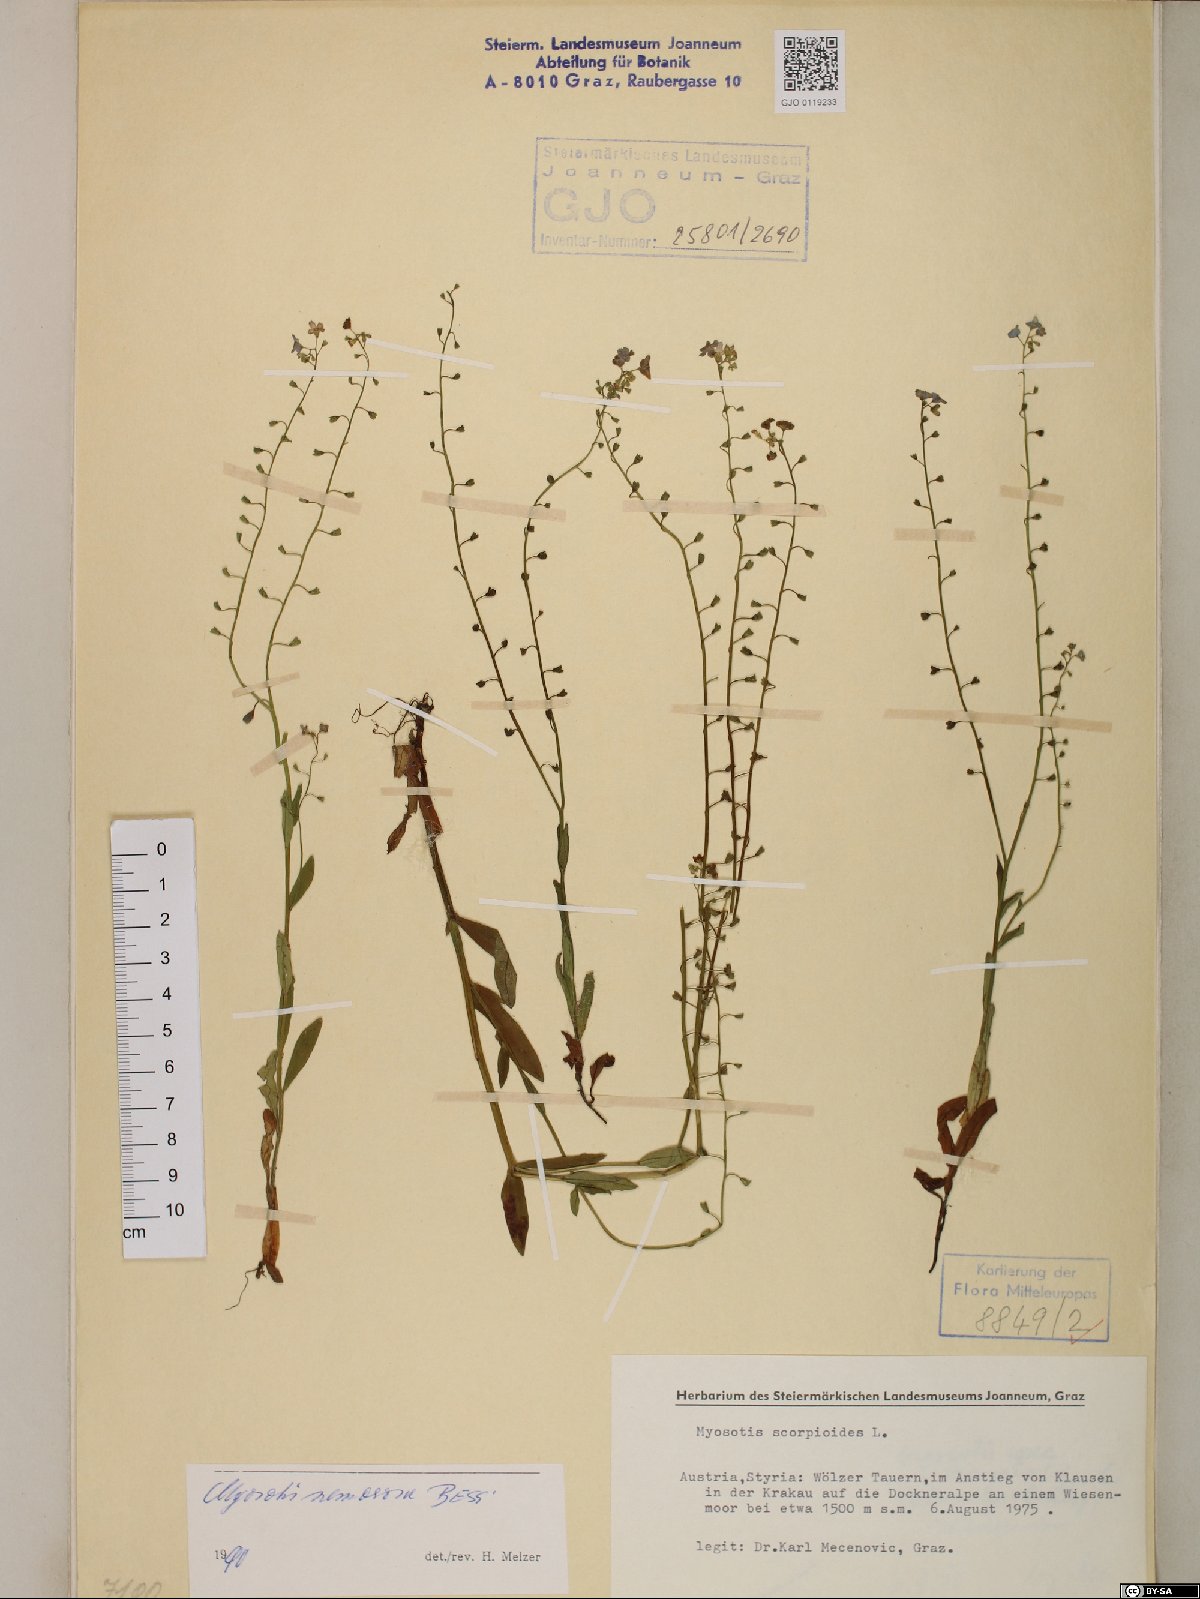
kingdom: Plantae
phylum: Tracheophyta
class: Magnoliopsida
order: Boraginales
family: Boraginaceae
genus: Myosotis
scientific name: Myosotis nemorosa
